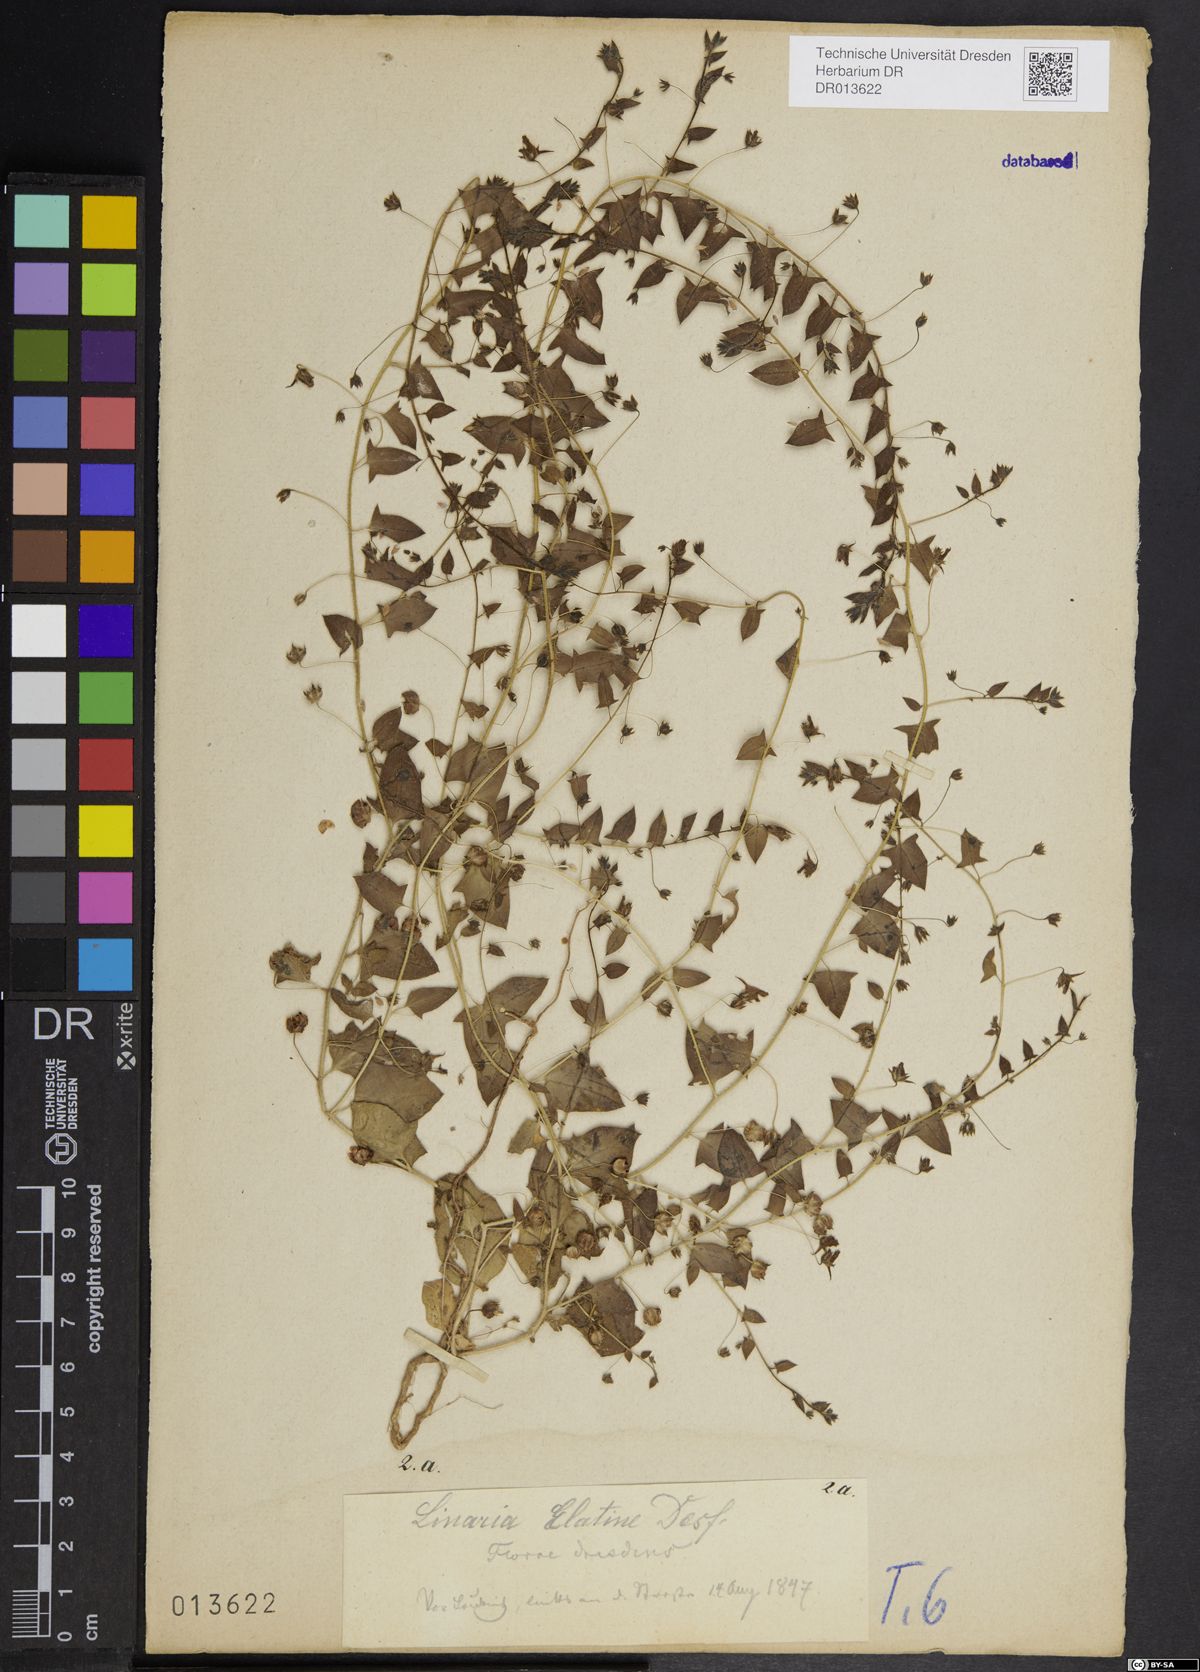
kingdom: Plantae
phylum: Tracheophyta
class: Magnoliopsida
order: Lamiales
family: Plantaginaceae
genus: Kickxia
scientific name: Kickxia elatine
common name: Sharp-leaved fluellen
